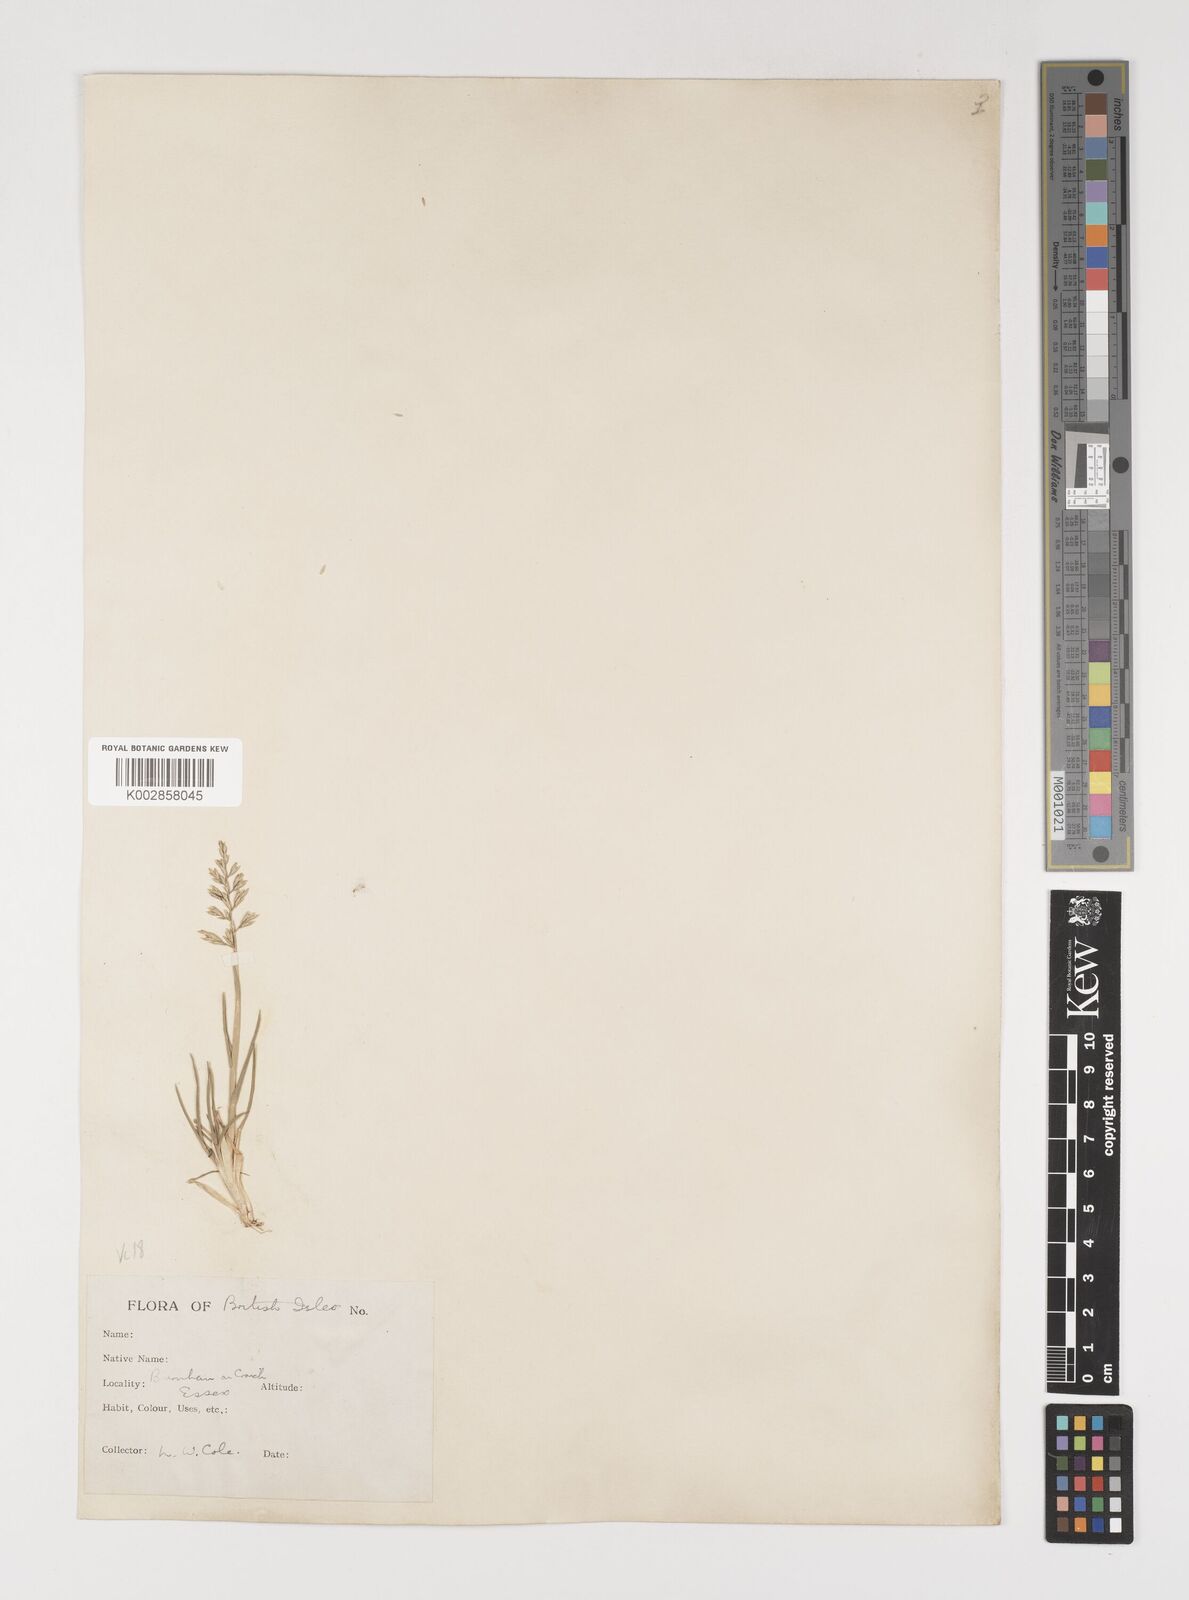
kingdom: Plantae
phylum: Tracheophyta
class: Liliopsida
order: Poales
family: Poaceae
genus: Puccinellia
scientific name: Puccinellia rupestris
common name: Stiff saltmarsh-grass
